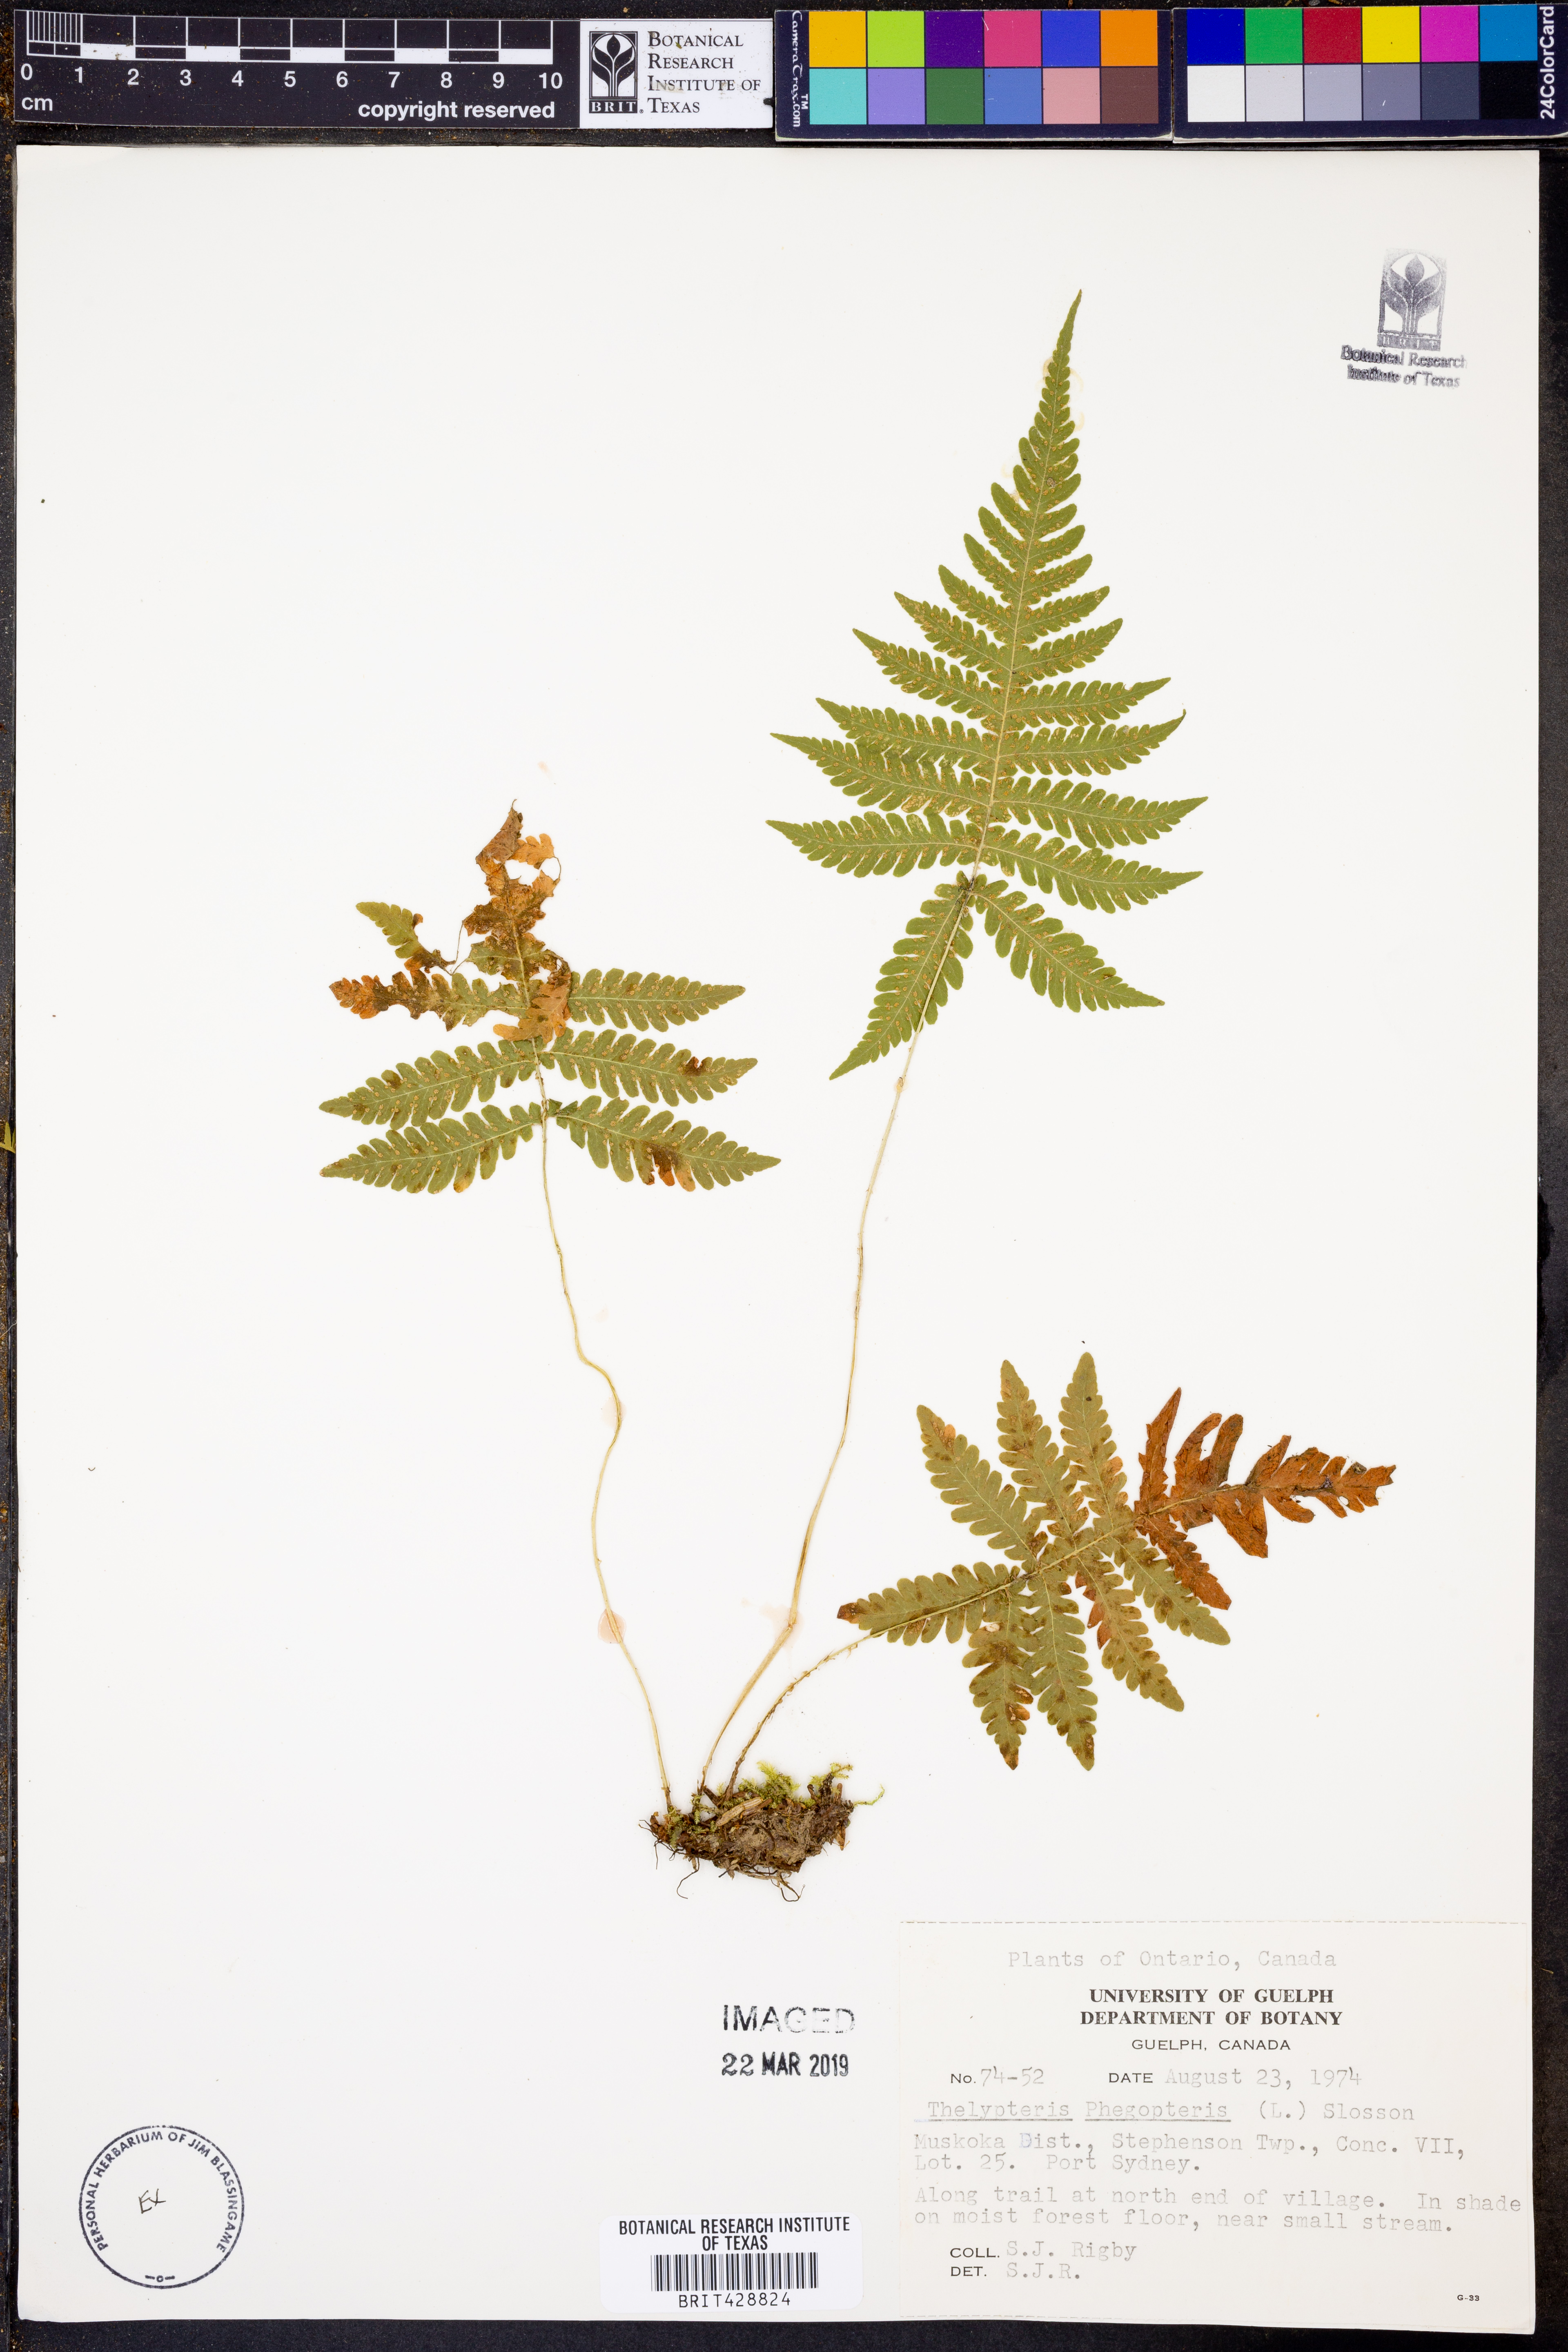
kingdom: Plantae
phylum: Tracheophyta
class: Polypodiopsida
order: Polypodiales
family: Thelypteridaceae
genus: Phegopteris
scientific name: Phegopteris connectilis
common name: Beech fern
